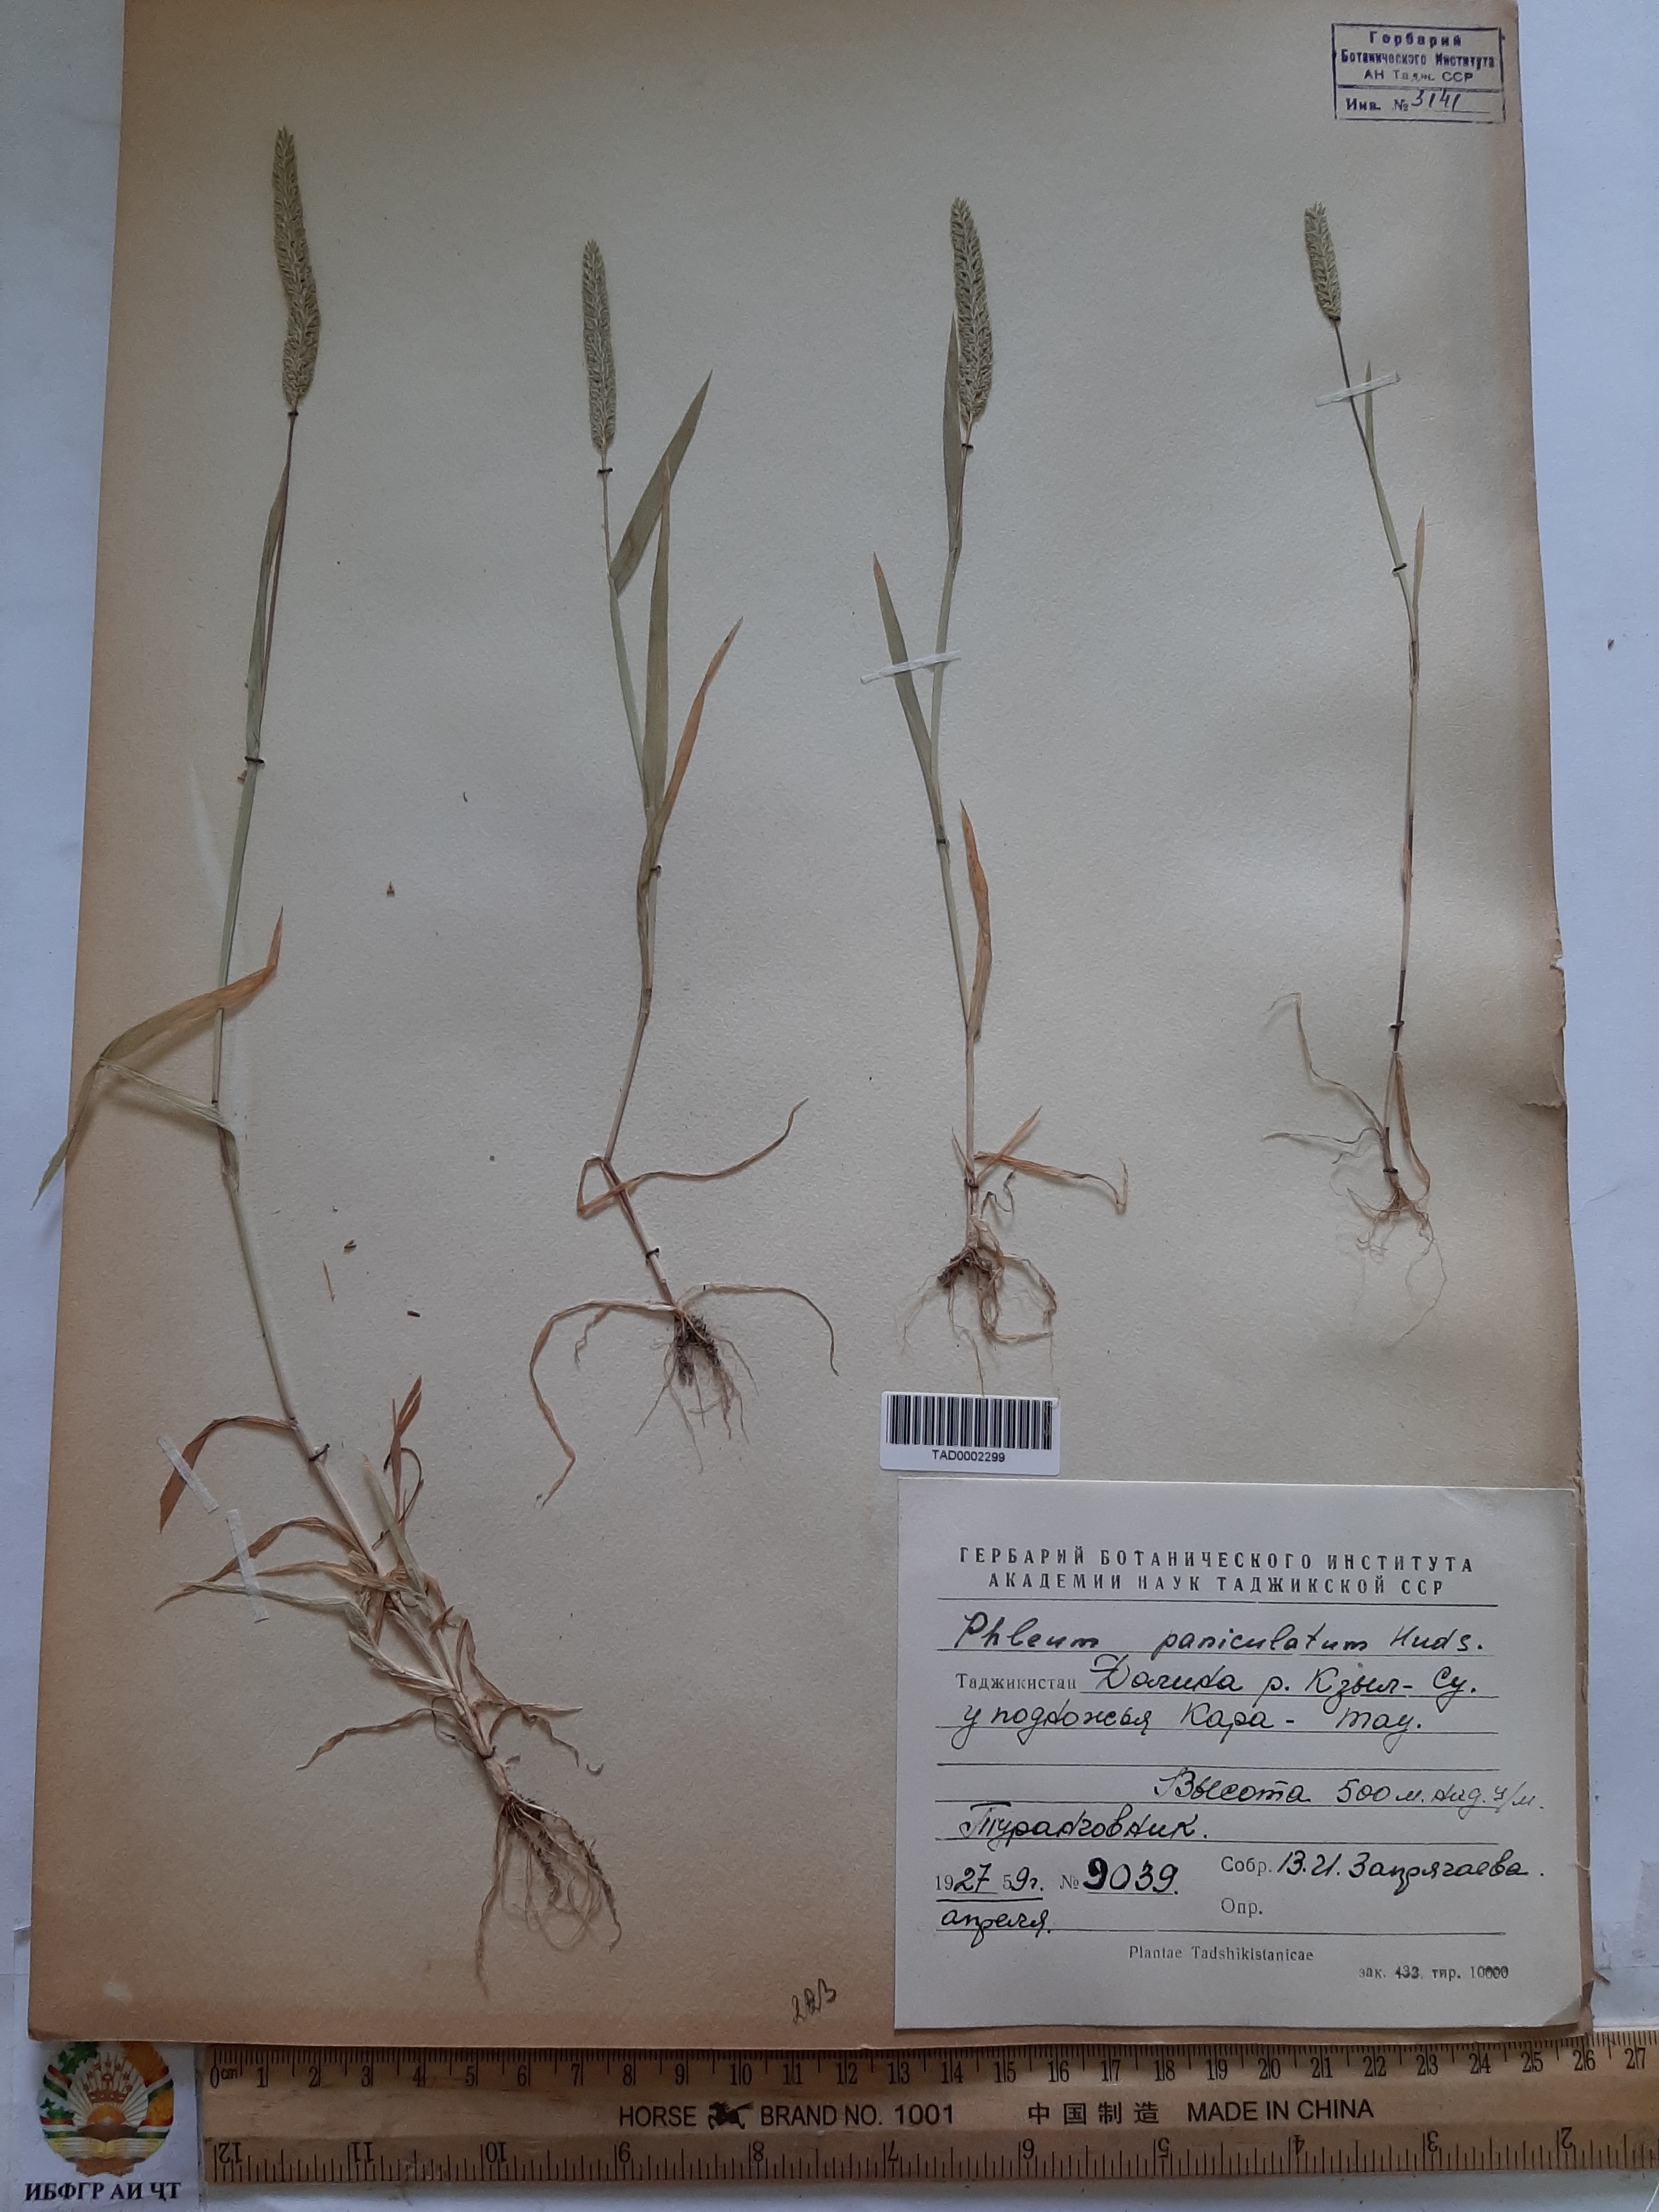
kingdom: Plantae
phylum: Tracheophyta
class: Liliopsida
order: Poales
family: Poaceae
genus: Phleum
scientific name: Phleum paniculatum
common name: British timothy
